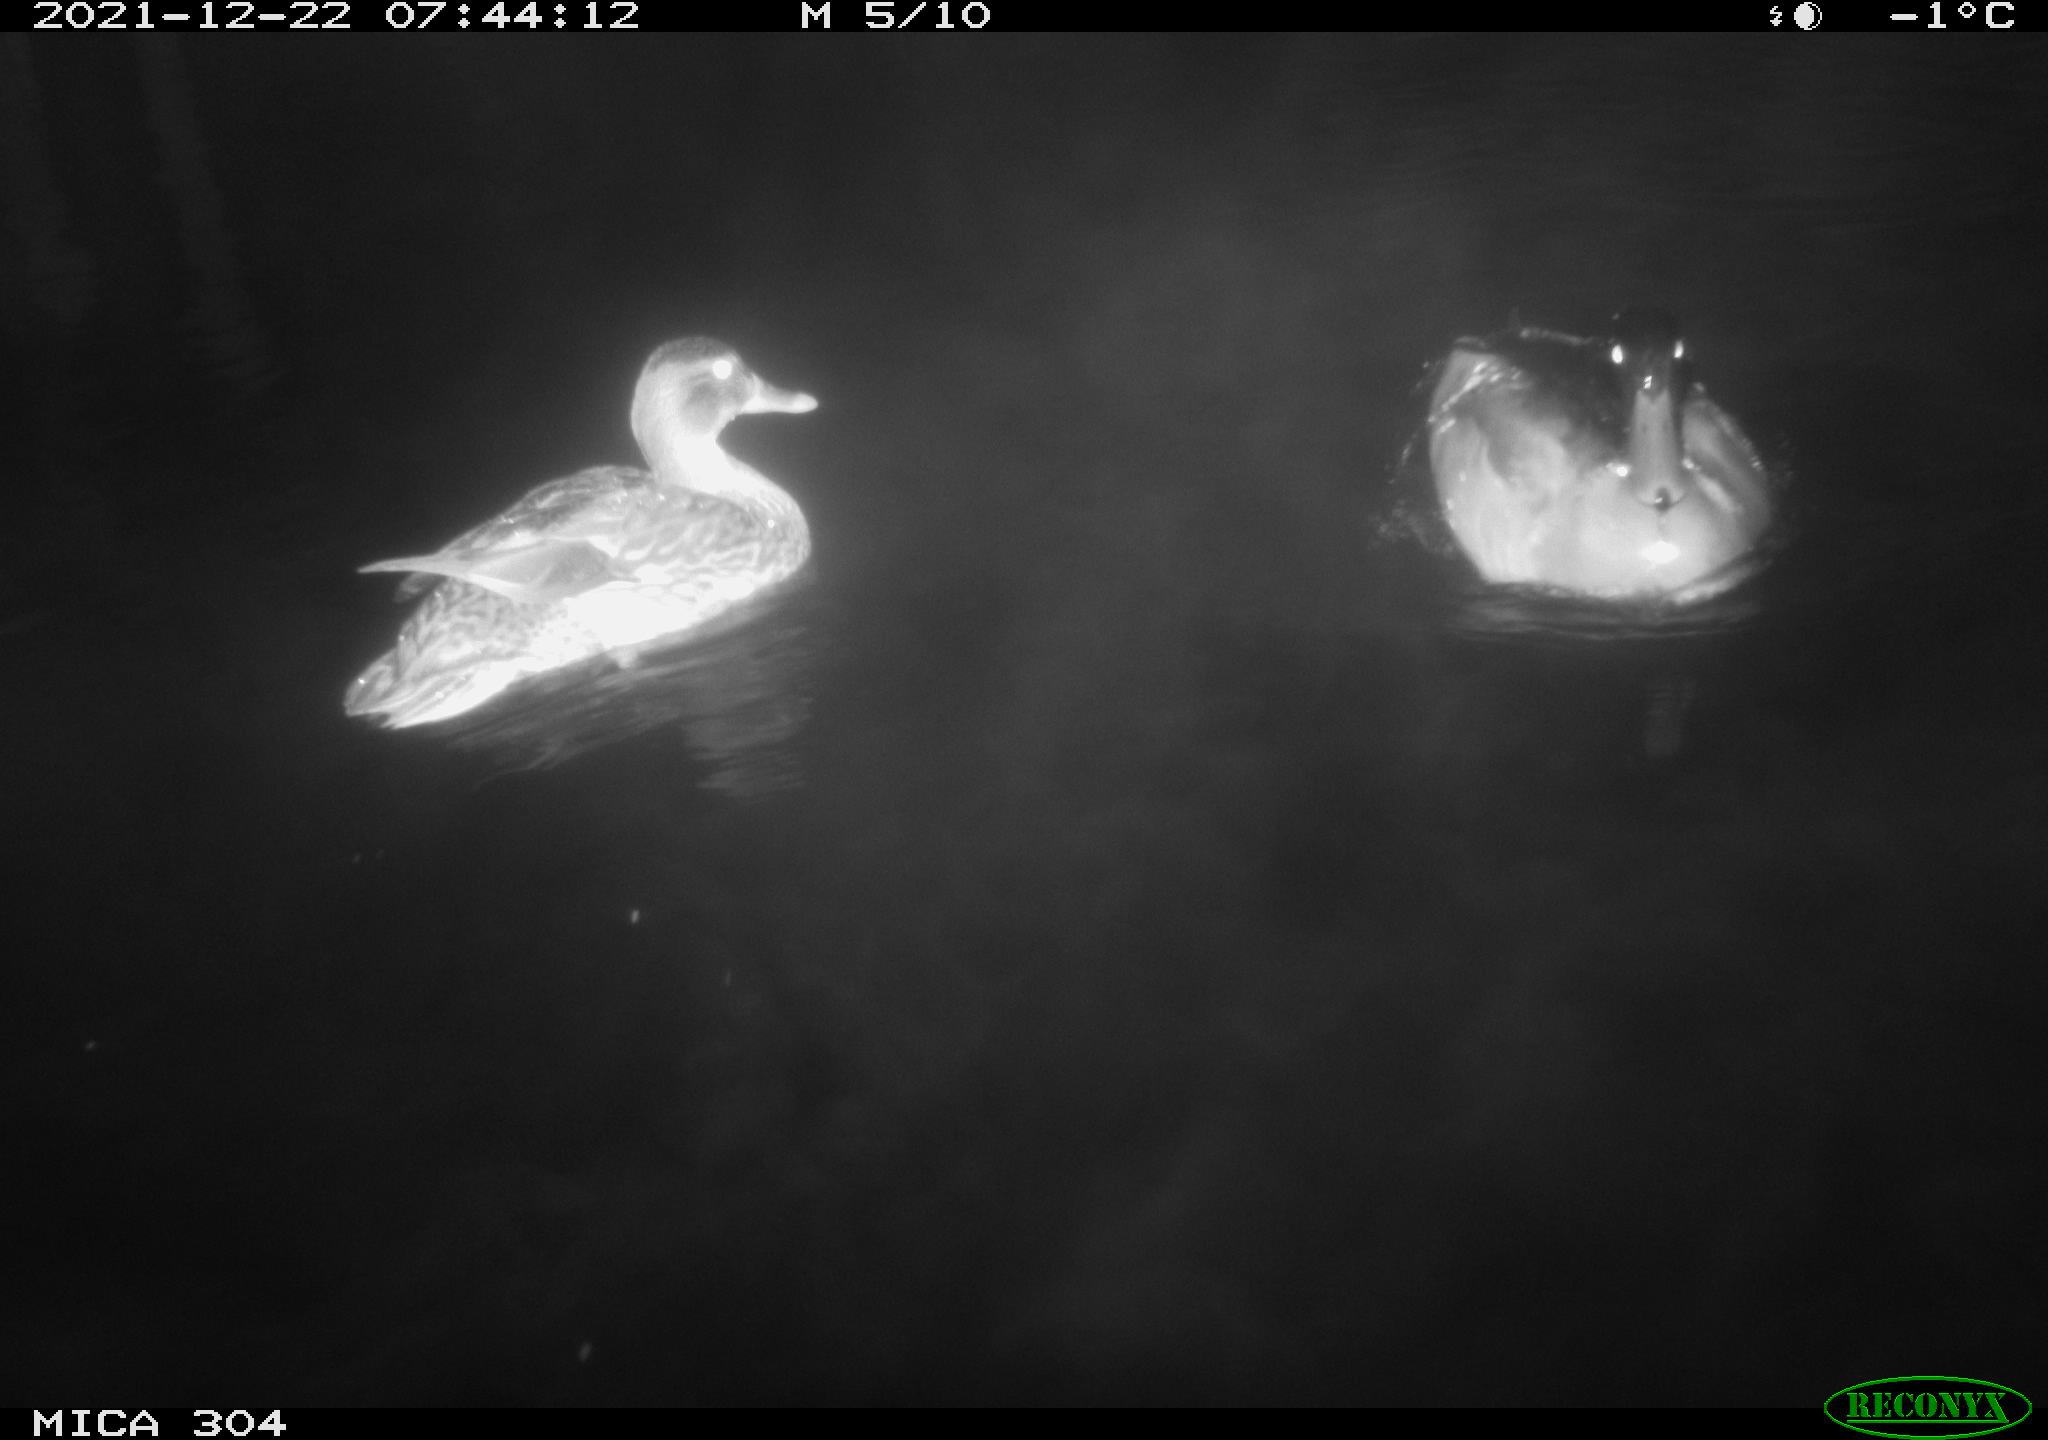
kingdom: Animalia
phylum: Chordata
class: Aves
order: Anseriformes
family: Anatidae
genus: Anas
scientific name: Anas
